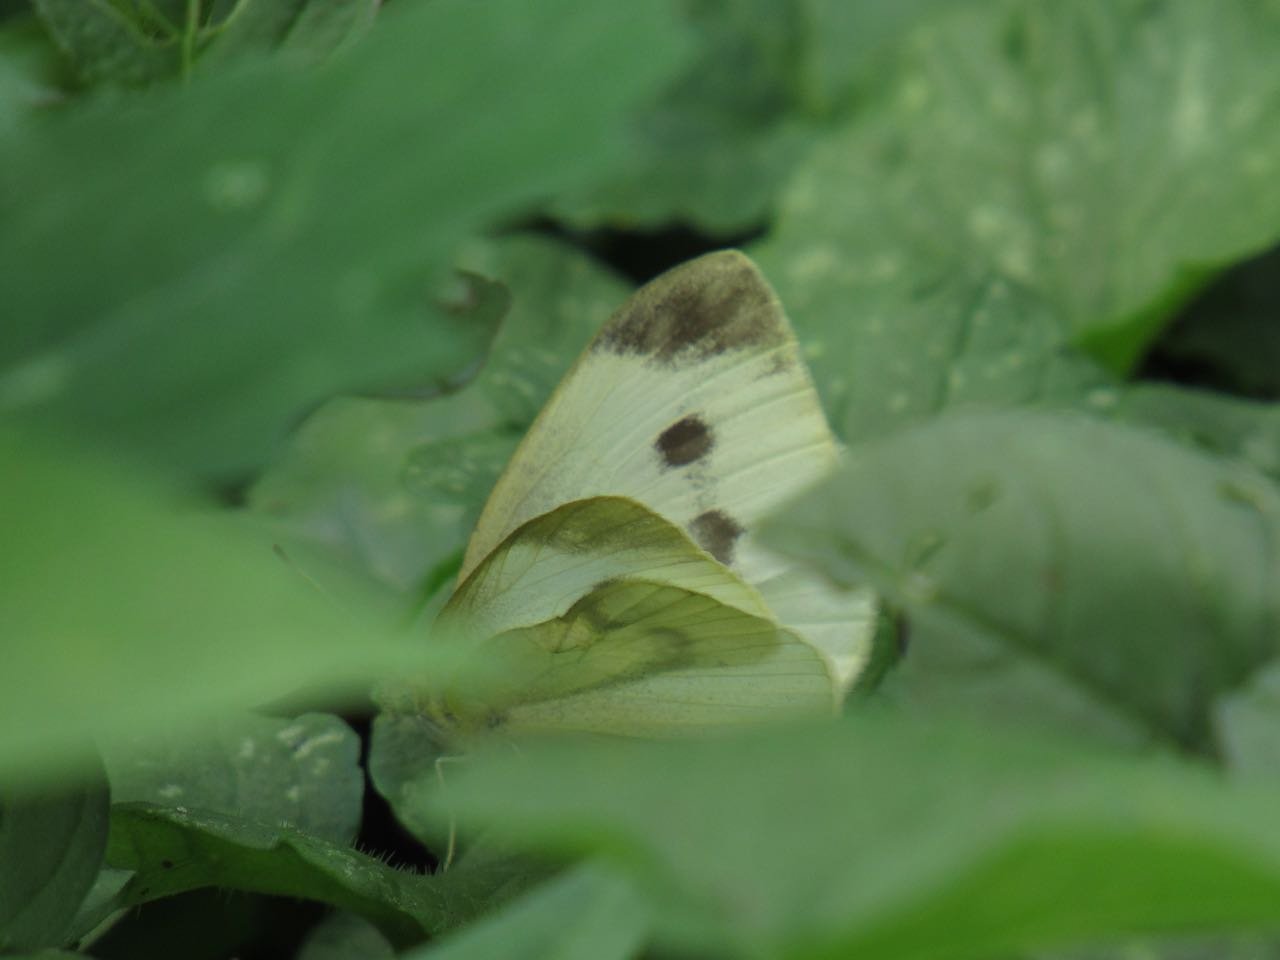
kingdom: Animalia
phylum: Arthropoda
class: Insecta
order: Lepidoptera
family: Pieridae
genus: Pieris
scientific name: Pieris rapae
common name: Cabbage White
